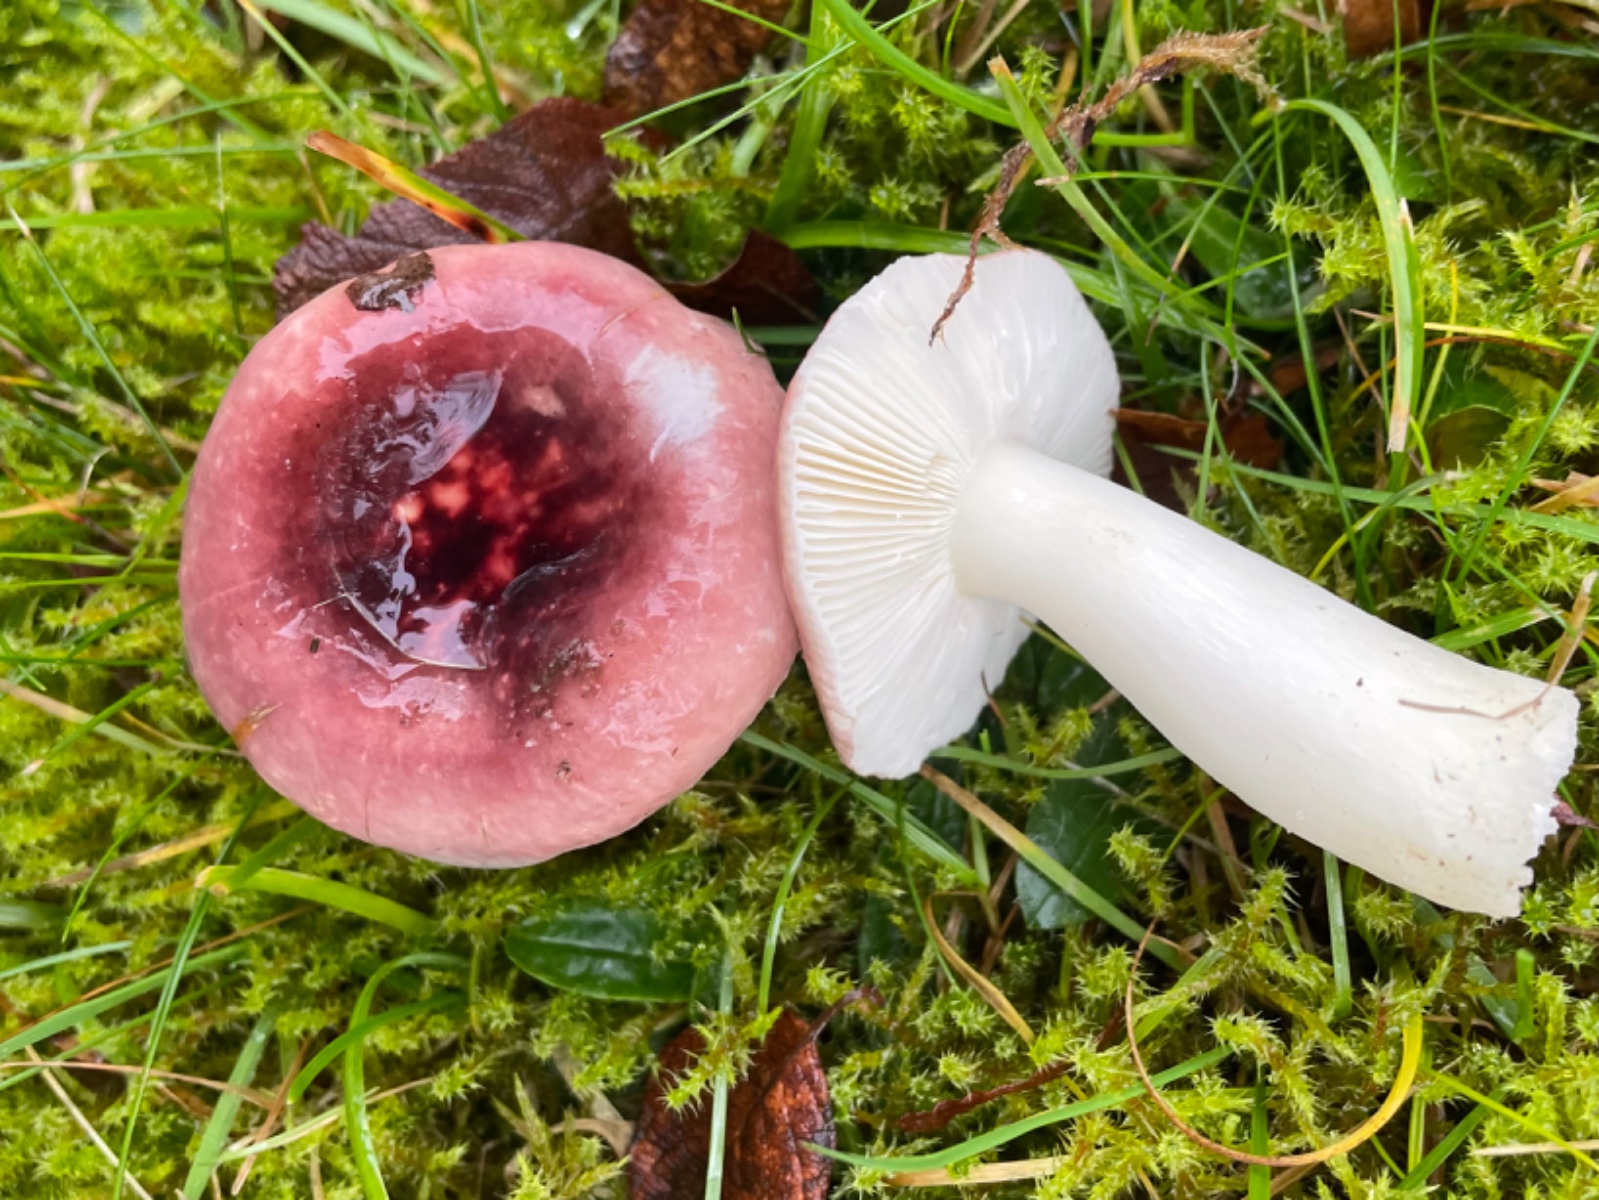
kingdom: Fungi
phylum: Basidiomycota
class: Agaricomycetes
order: Russulales
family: Russulaceae
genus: Russula
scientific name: Russula fragilis
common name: savbladet skørhat
